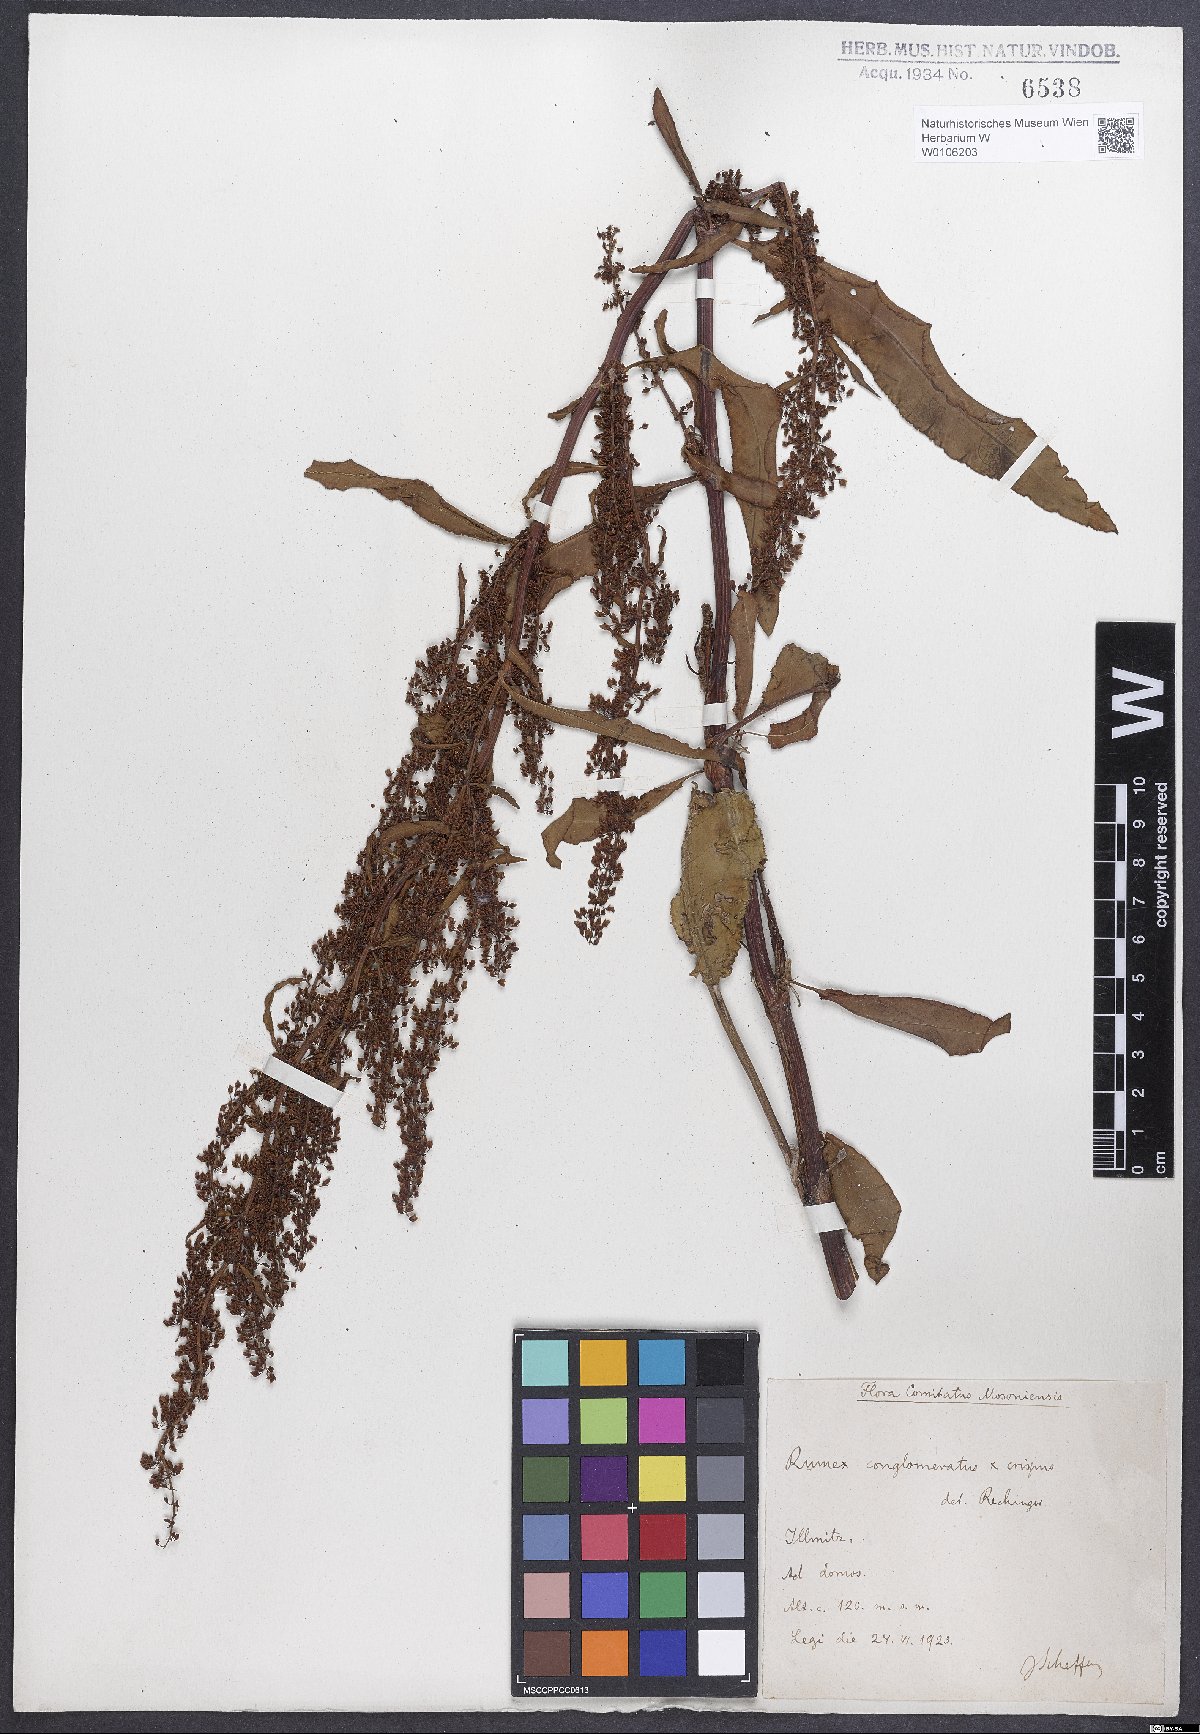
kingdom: Plantae
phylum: Tracheophyta
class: Magnoliopsida
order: Caryophyllales
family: Polygonaceae
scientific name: Polygonaceae
